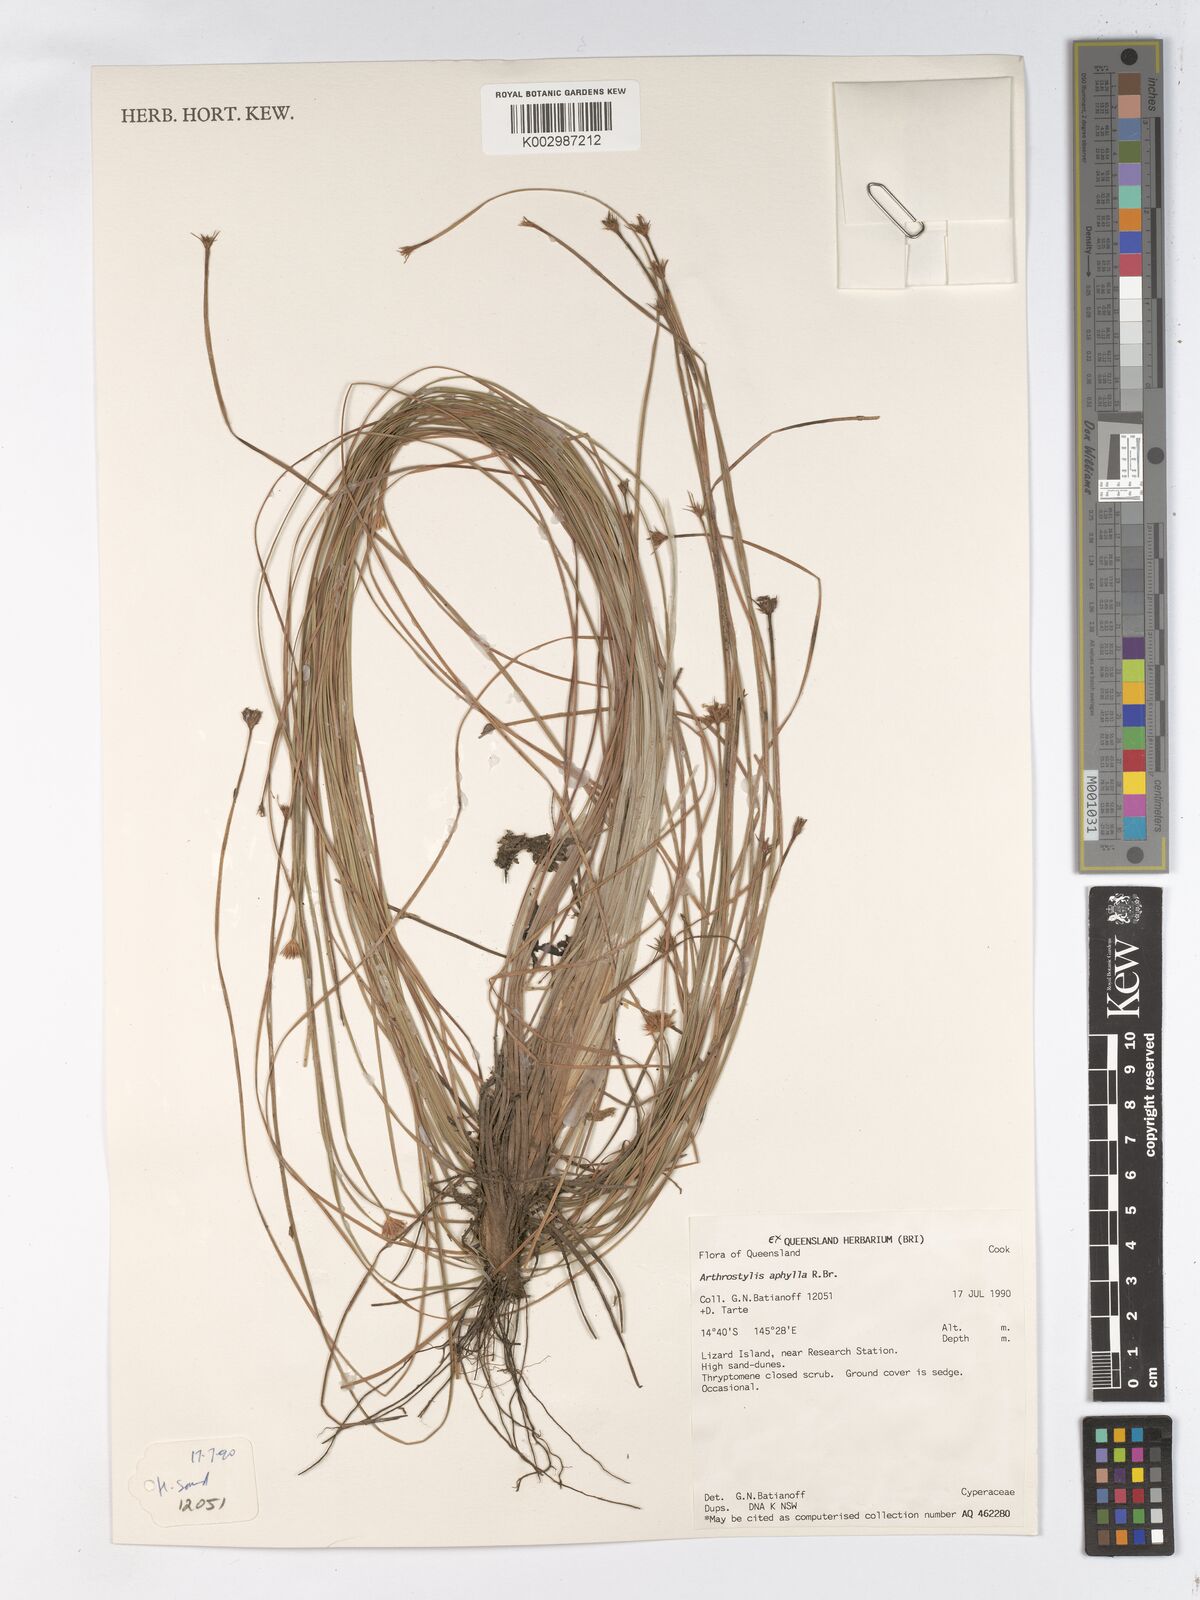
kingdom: Plantae
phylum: Tracheophyta
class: Liliopsida
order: Poales
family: Cyperaceae
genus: Arthrostylis
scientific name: Arthrostylis aphylla
